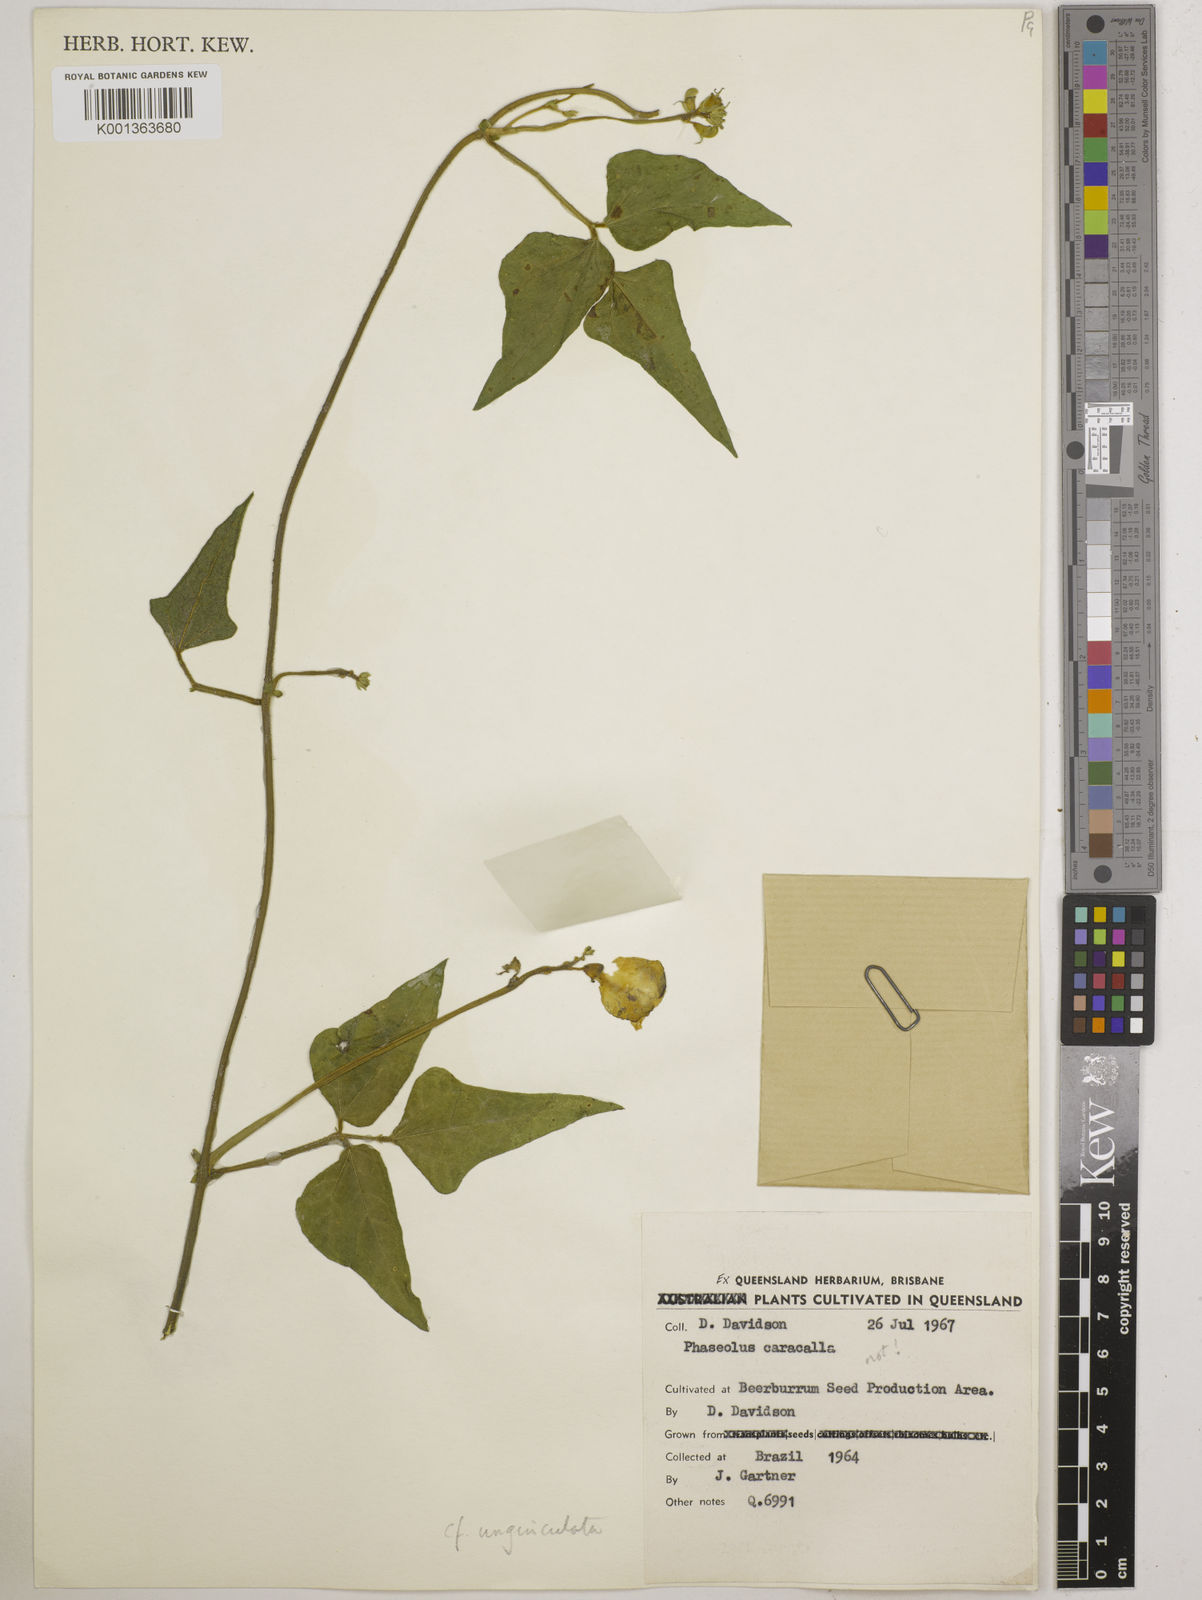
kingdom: Plantae
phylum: Tracheophyta
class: Magnoliopsida
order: Fabales
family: Fabaceae
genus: Vigna
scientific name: Vigna unguiculata
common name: Cowpea
